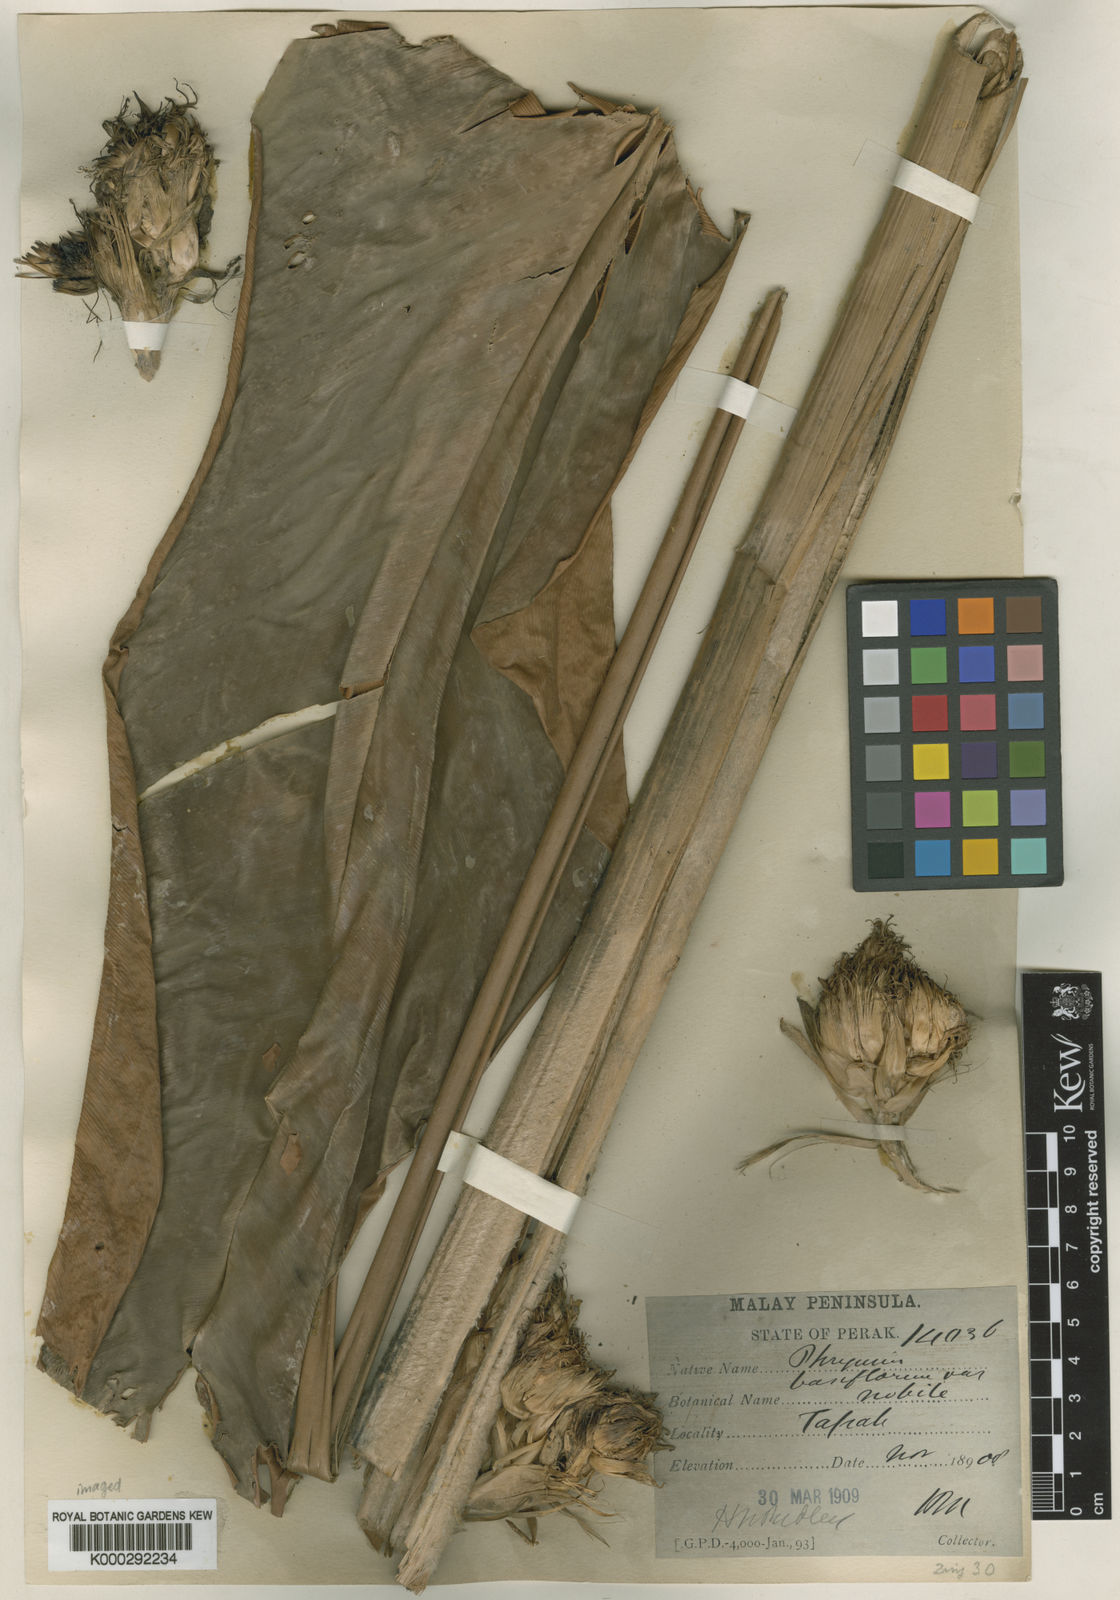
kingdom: Plantae
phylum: Tracheophyta
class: Liliopsida
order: Zingiberales
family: Marantaceae
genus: Phrynium
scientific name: Phrynium villosulum
